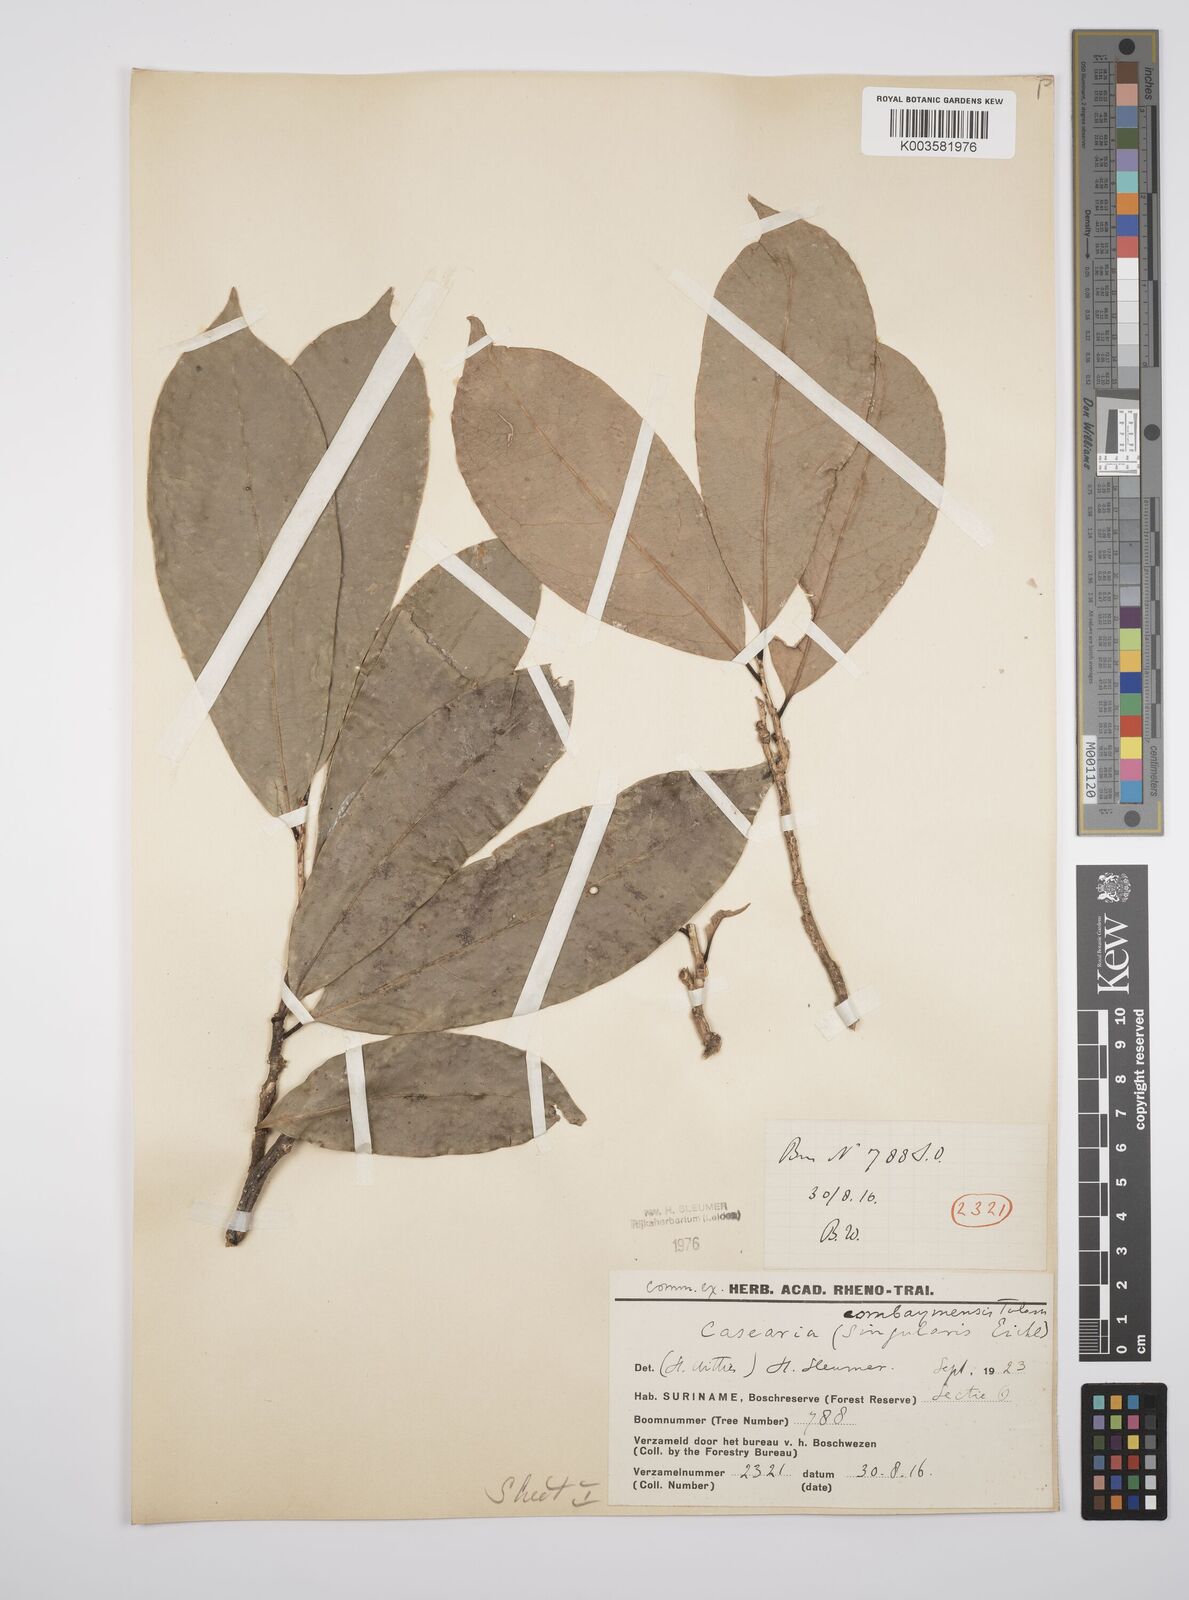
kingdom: Plantae
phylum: Tracheophyta
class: Magnoliopsida
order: Malpighiales
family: Salicaceae
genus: Casearia
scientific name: Casearia combaymensis
